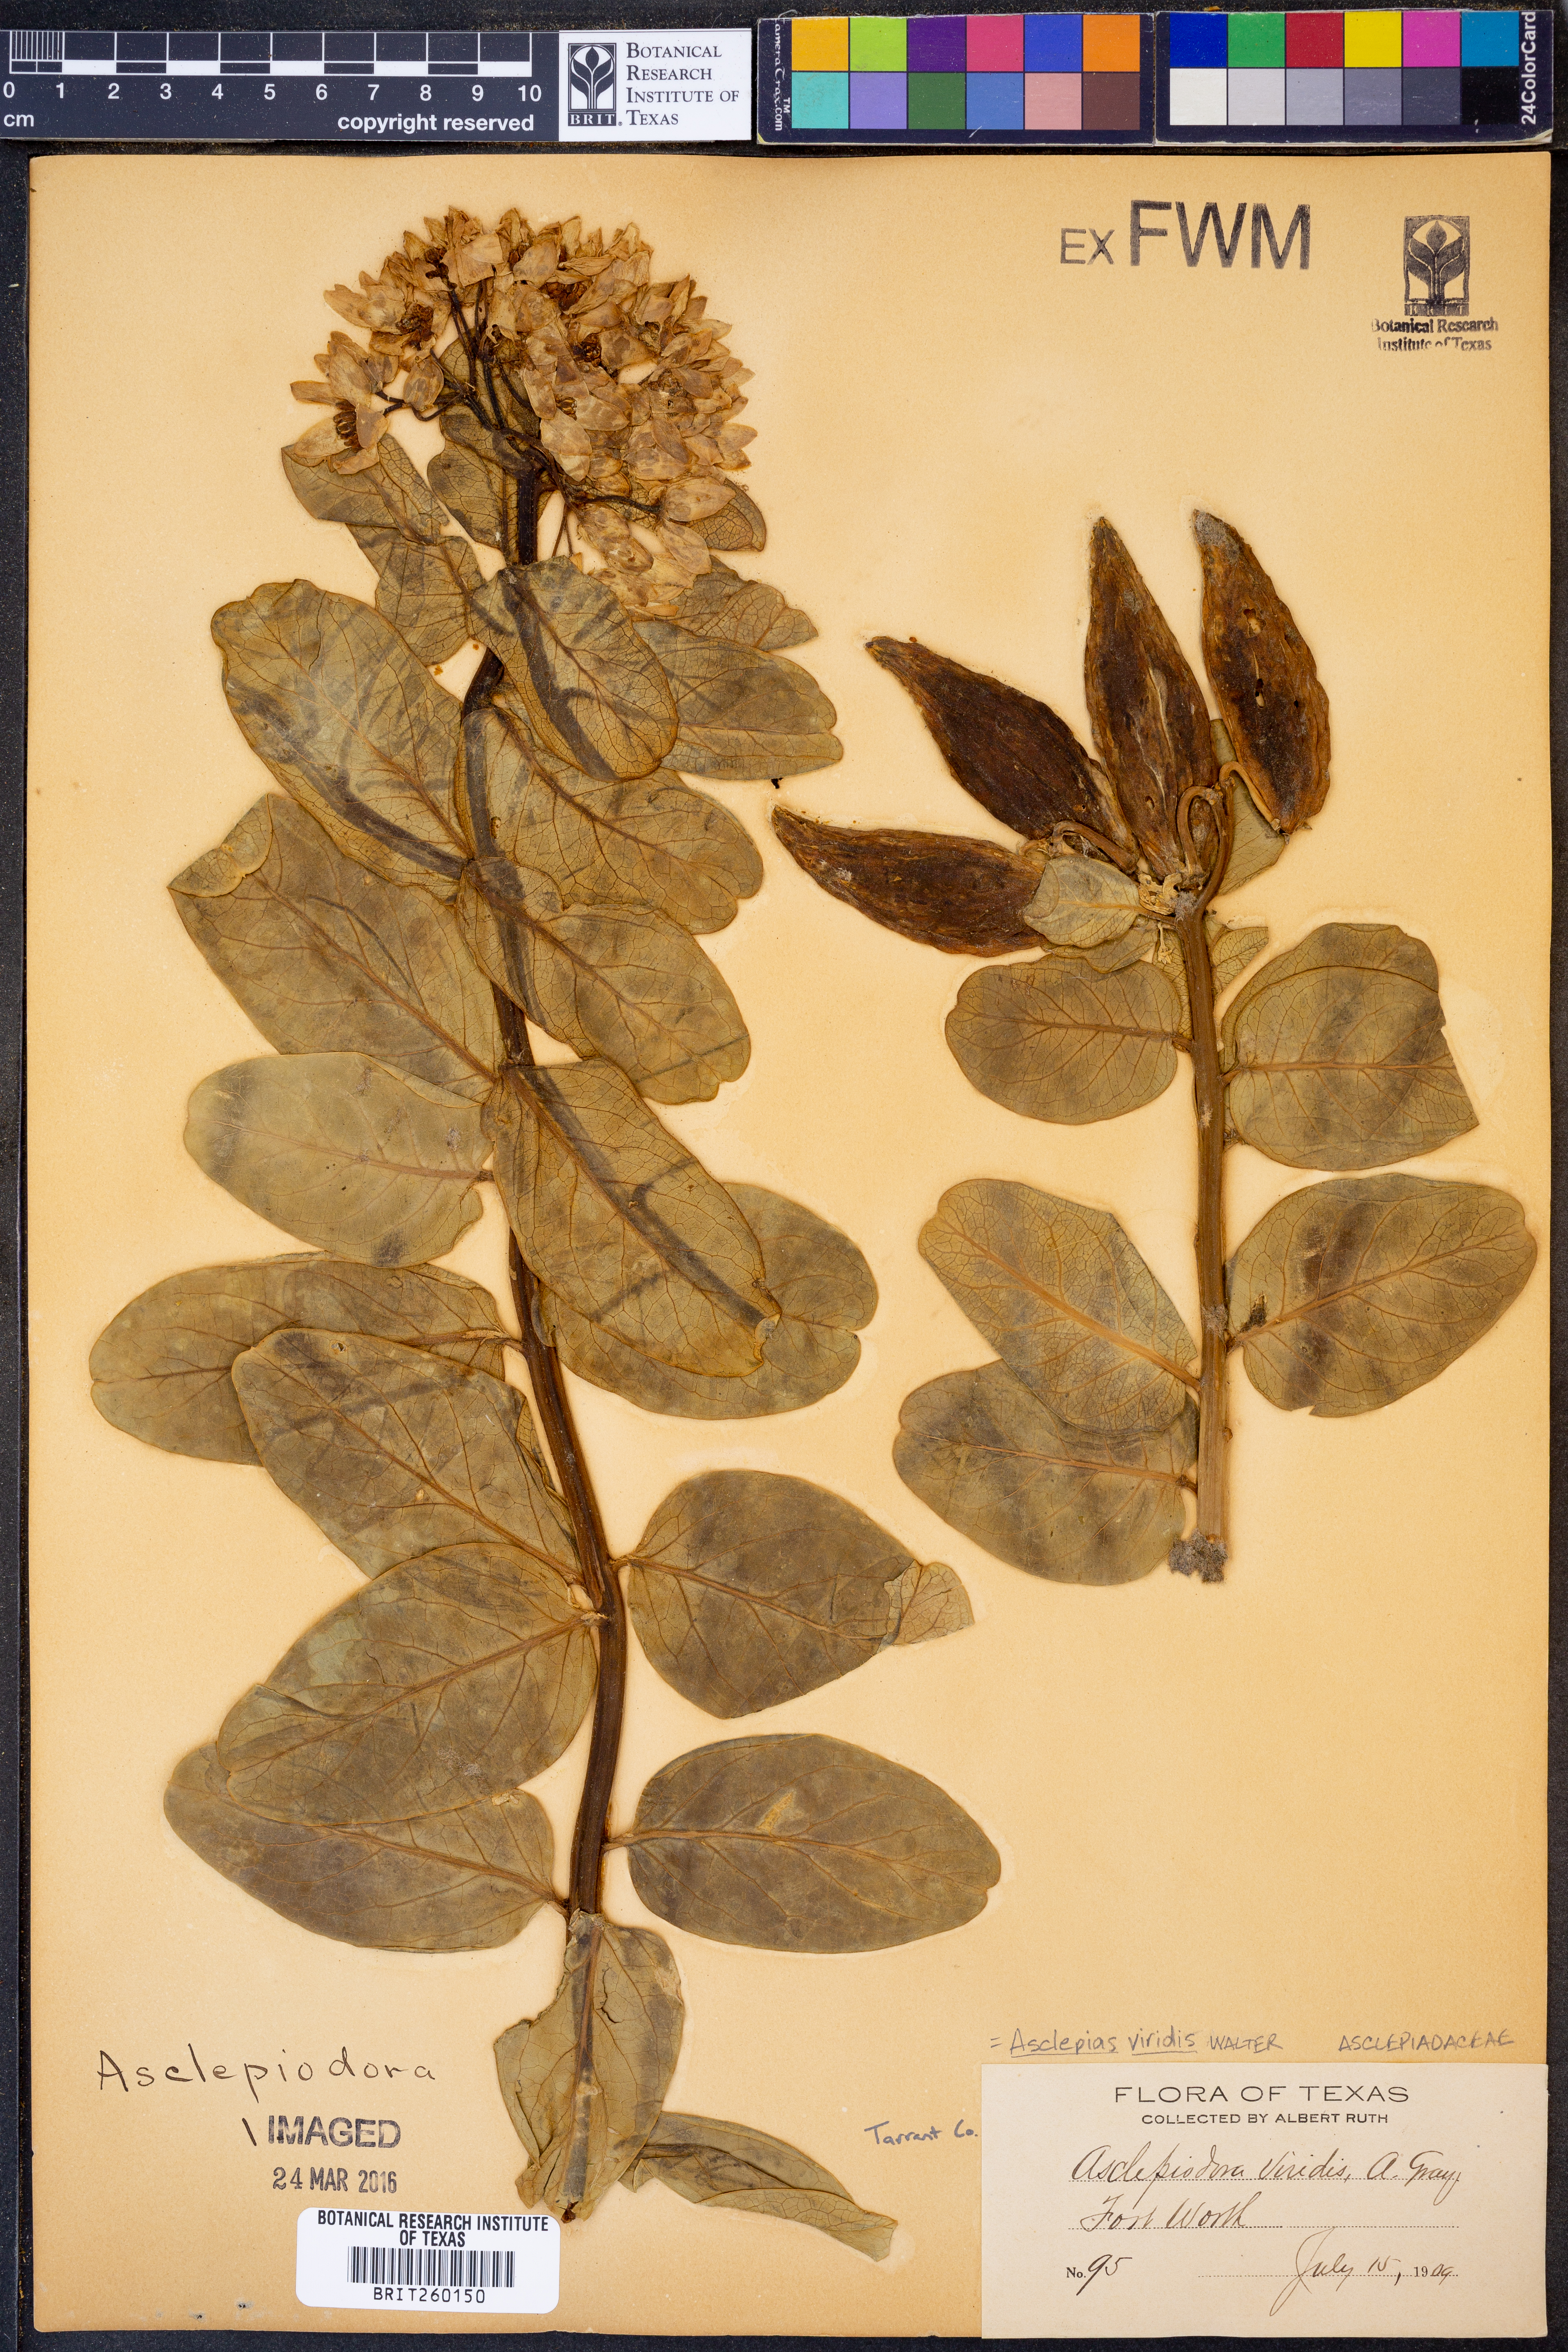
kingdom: Plantae
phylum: Tracheophyta
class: Magnoliopsida
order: Gentianales
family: Apocynaceae
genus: Asclepias
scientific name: Asclepias viridis
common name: Antelope-horns
